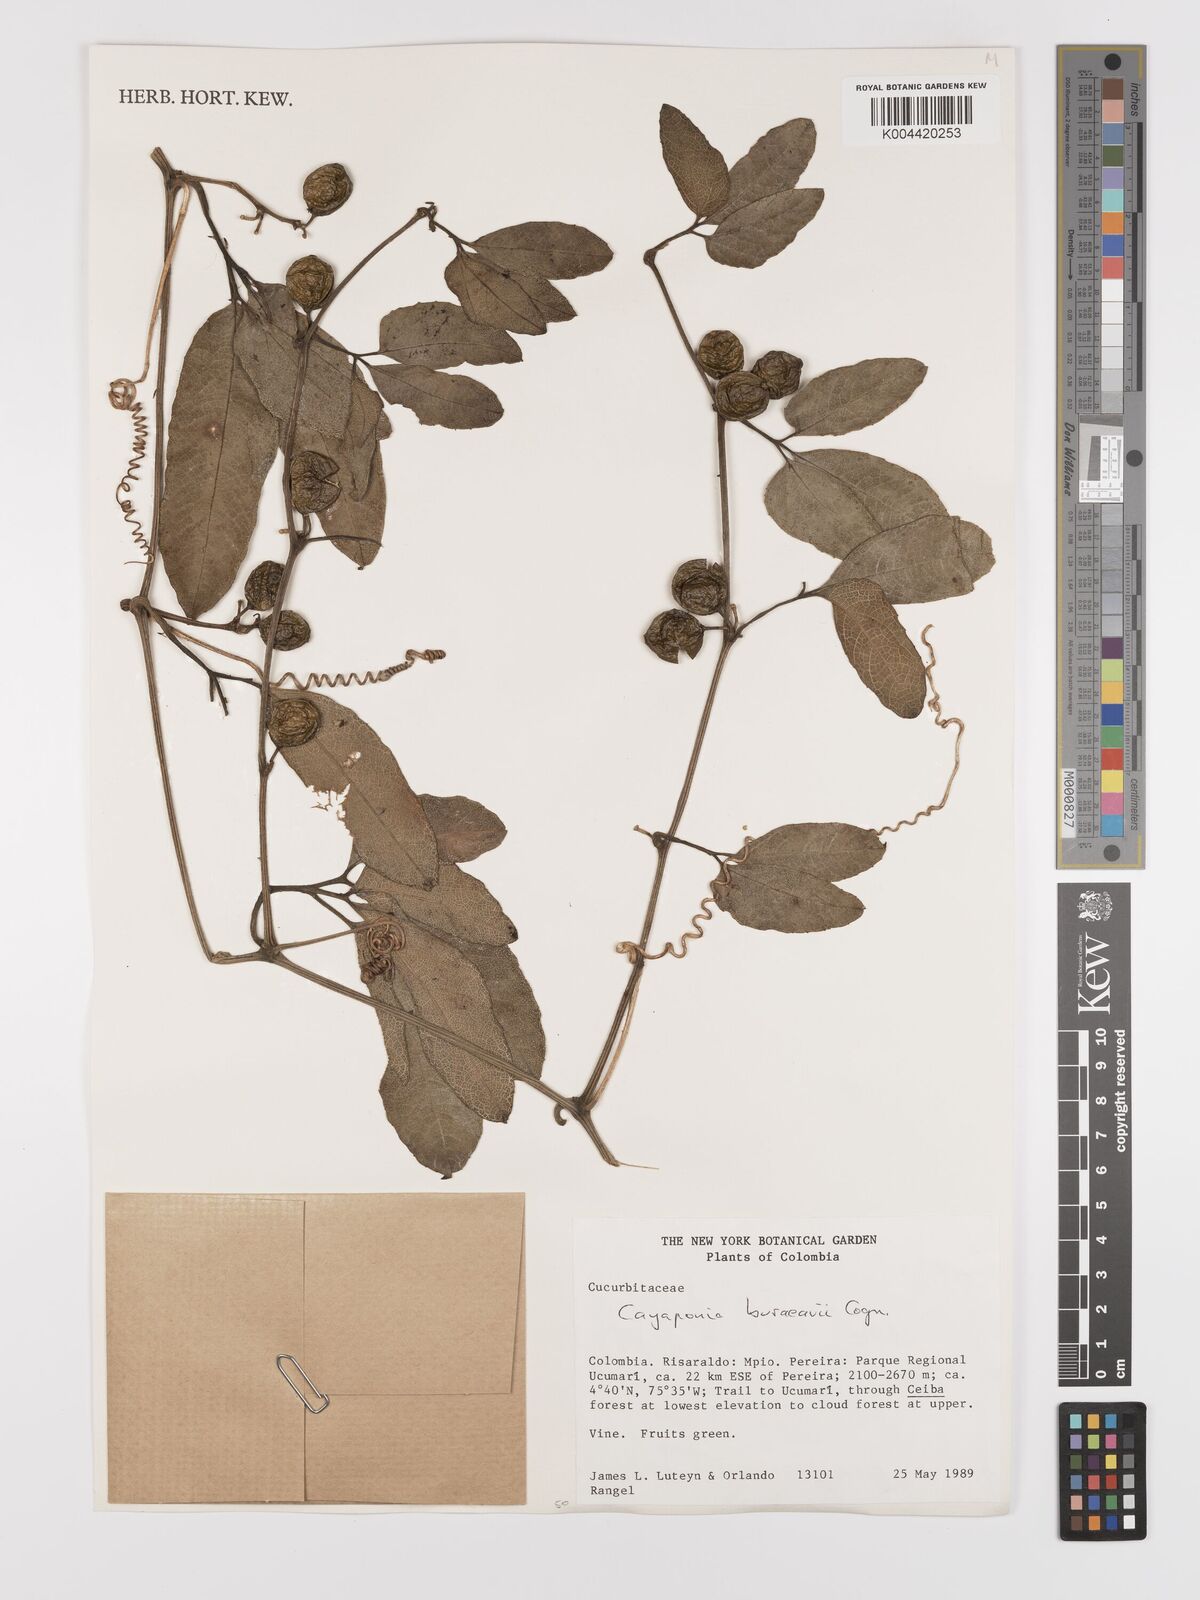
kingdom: Plantae
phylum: Tracheophyta
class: Magnoliopsida
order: Cucurbitales
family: Cucurbitaceae
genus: Cayaponia
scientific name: Cayaponia buraeavii
